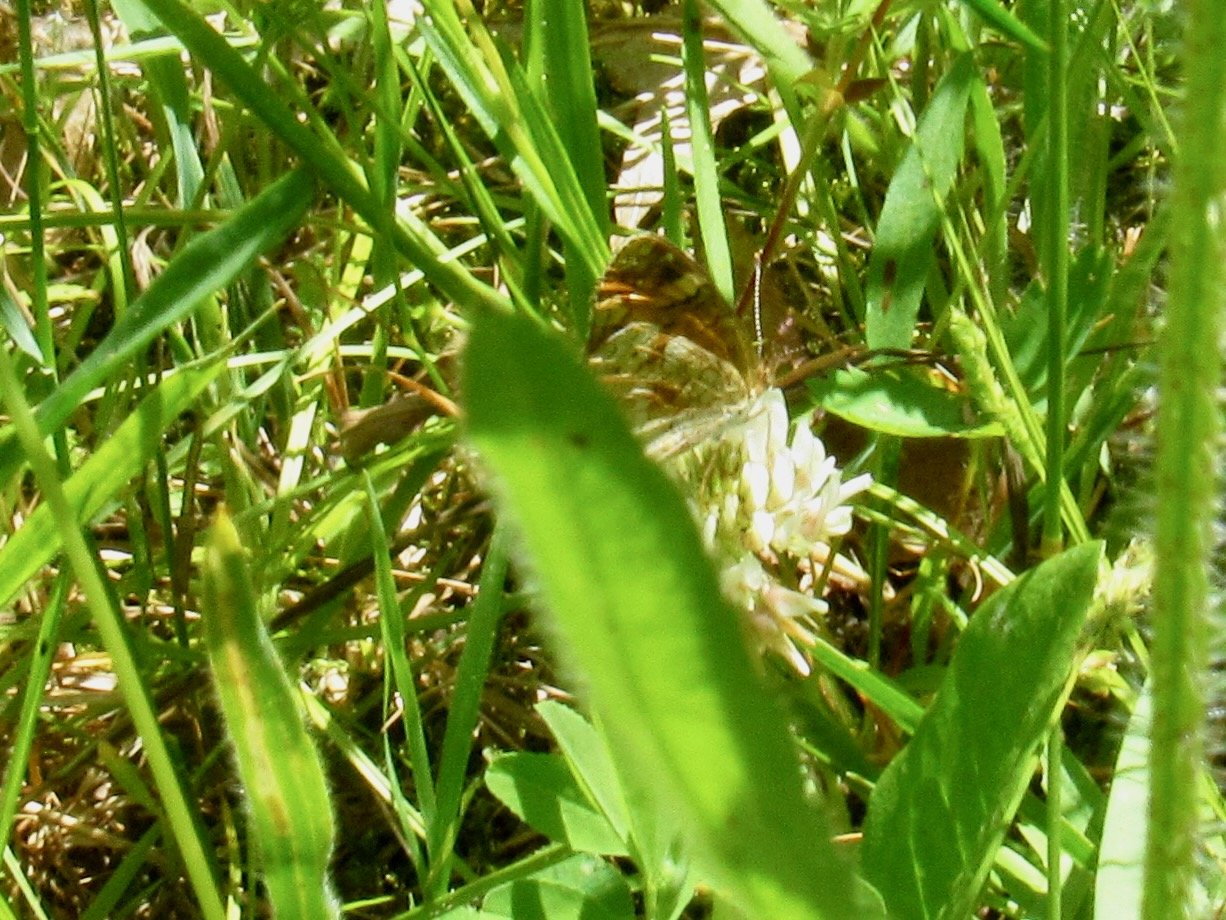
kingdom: Animalia
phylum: Arthropoda
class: Insecta
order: Lepidoptera
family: Nymphalidae
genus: Phyciodes
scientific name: Phyciodes tharos
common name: Pearl Crescent
